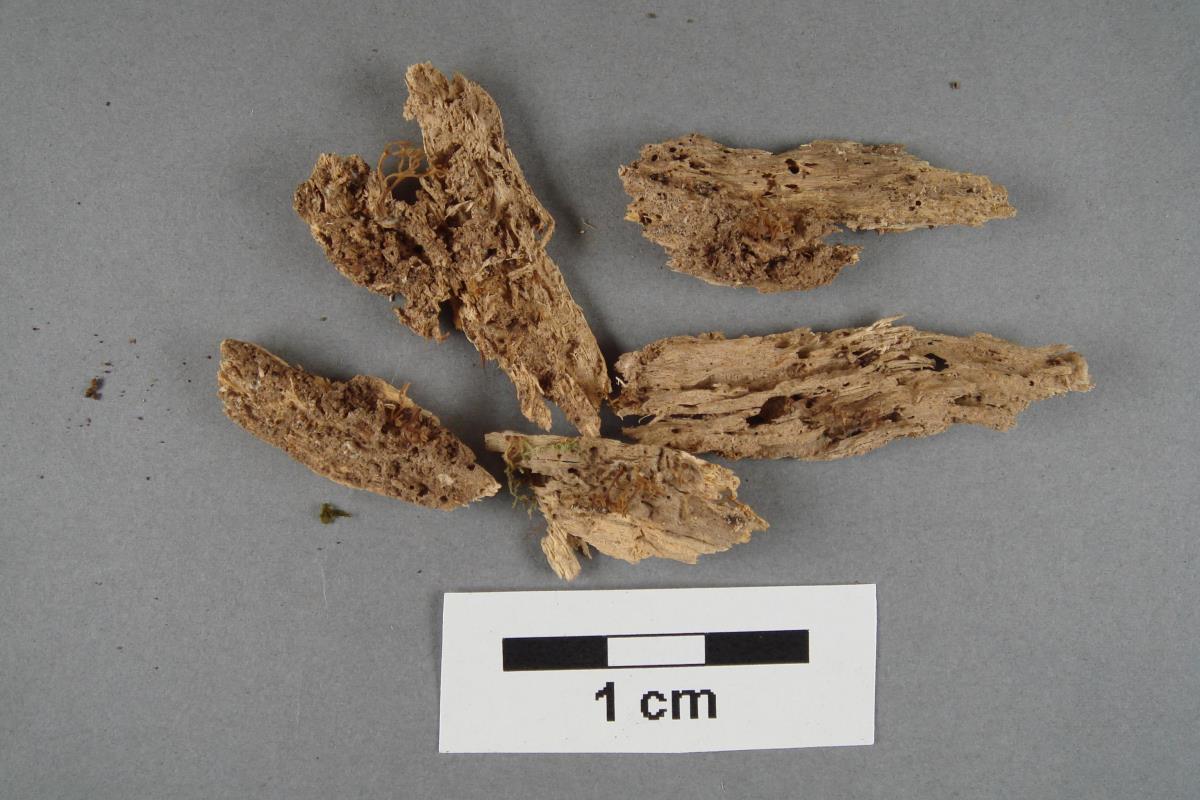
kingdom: Fungi
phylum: Basidiomycota
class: Agaricomycetes
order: Russulales
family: Auriscalpiaceae
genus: Artomyces
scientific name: Artomyces colensoi
